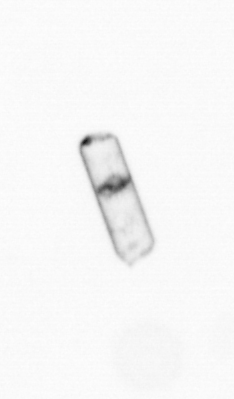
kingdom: Chromista
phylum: Ochrophyta
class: Bacillariophyceae
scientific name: Bacillariophyceae
